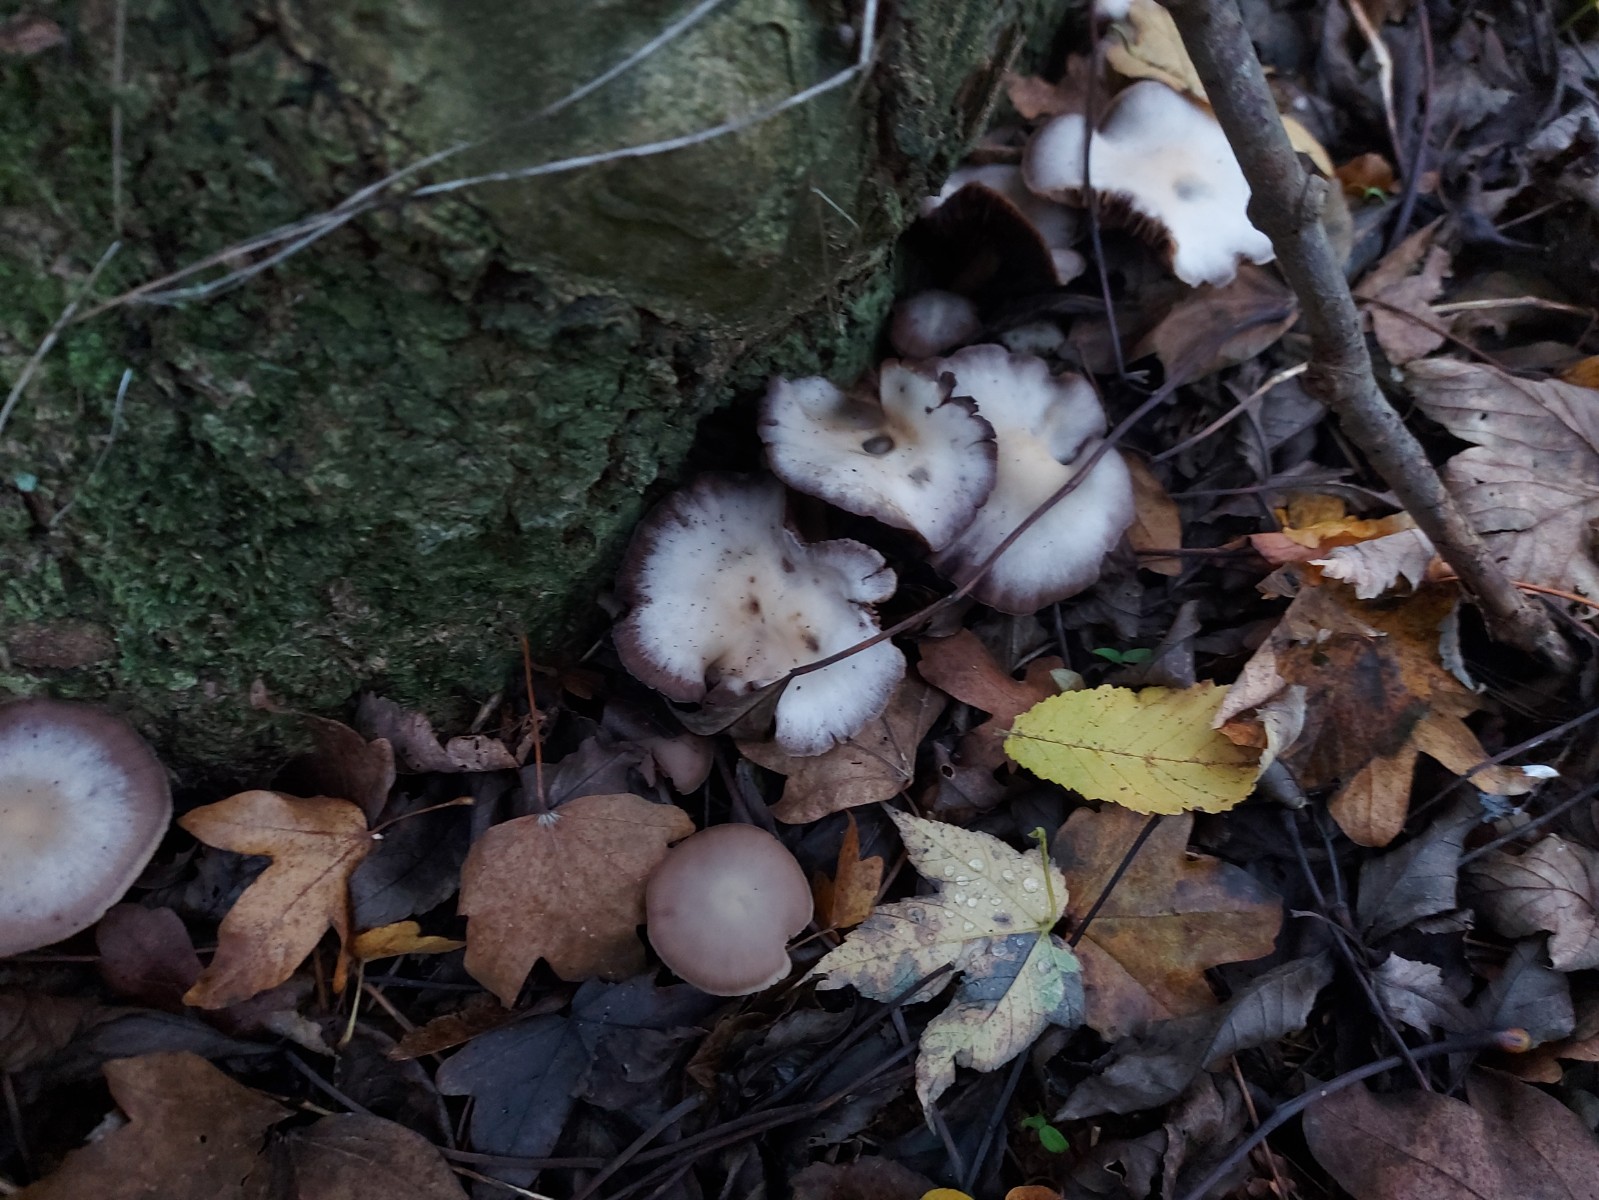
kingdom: Fungi
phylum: Basidiomycota
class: Agaricomycetes
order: Agaricales
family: Psathyrellaceae
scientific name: Psathyrellaceae
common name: mørkhatfamilien
